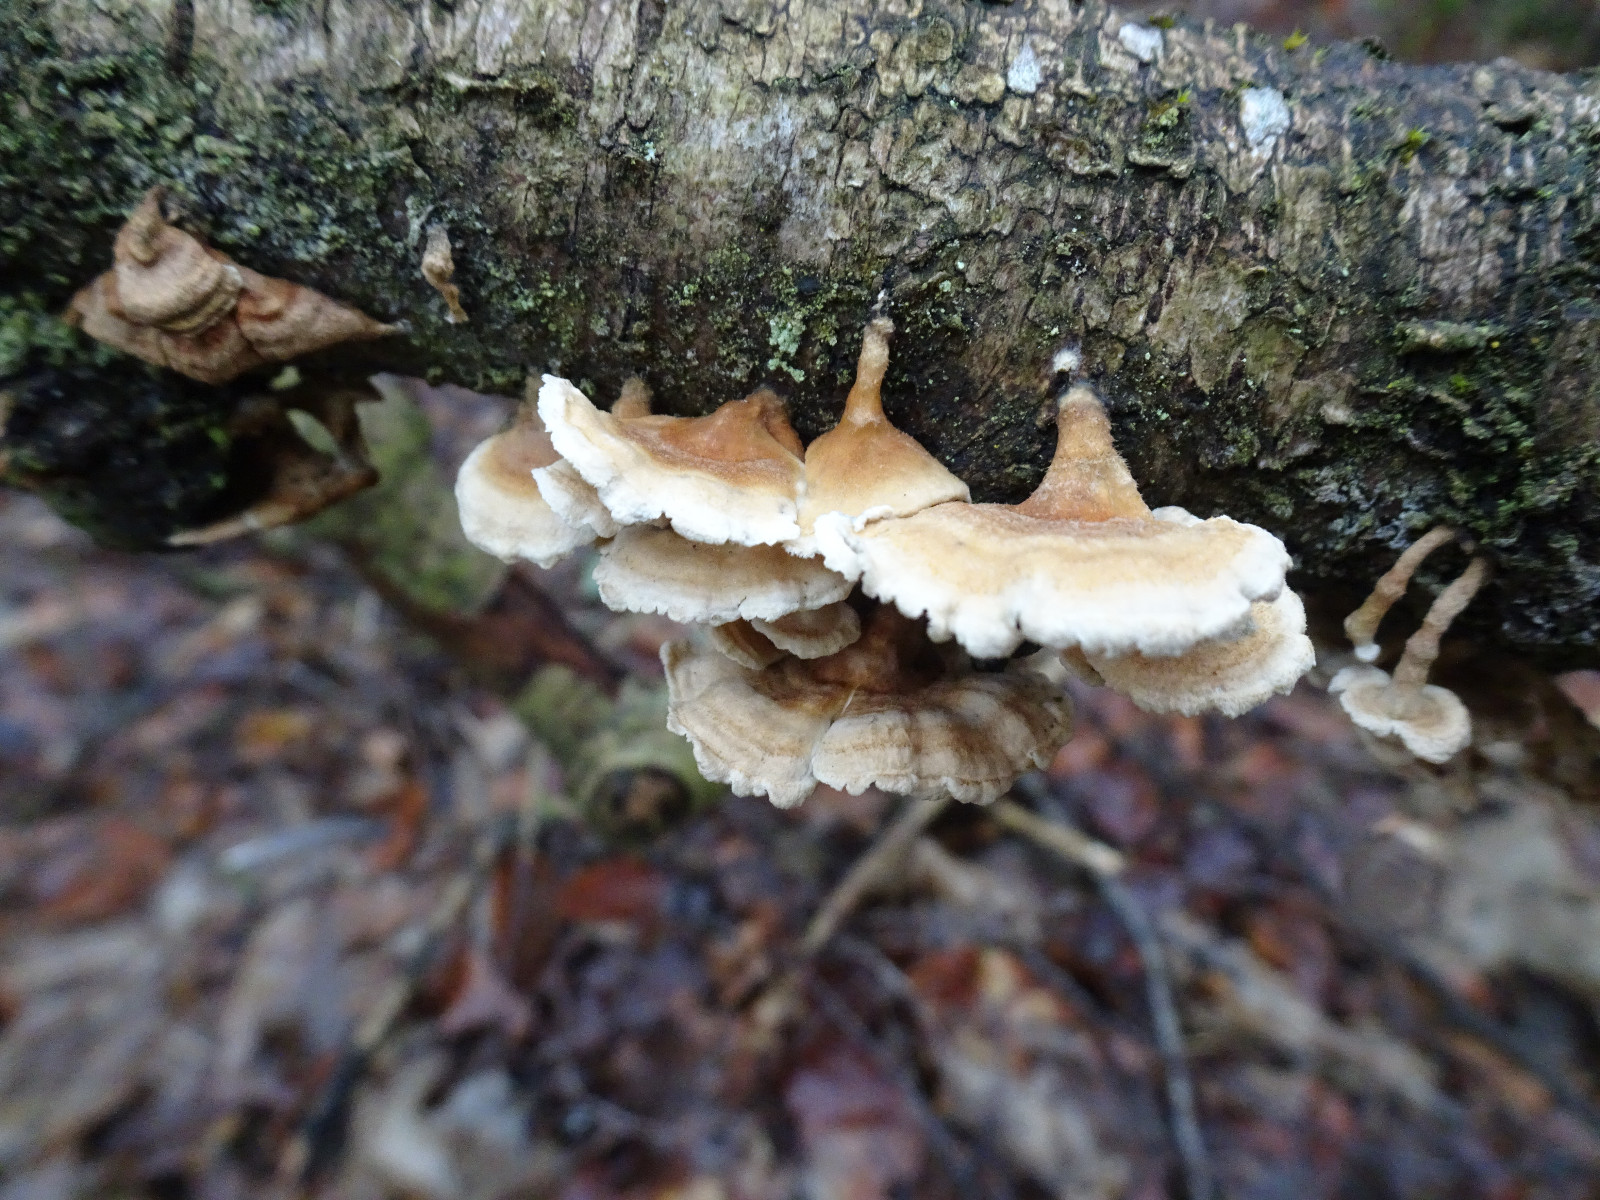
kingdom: Fungi
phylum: Basidiomycota
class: Agaricomycetes
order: Amylocorticiales
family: Amylocorticiaceae
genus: Plicaturopsis
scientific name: Plicaturopsis crispa
